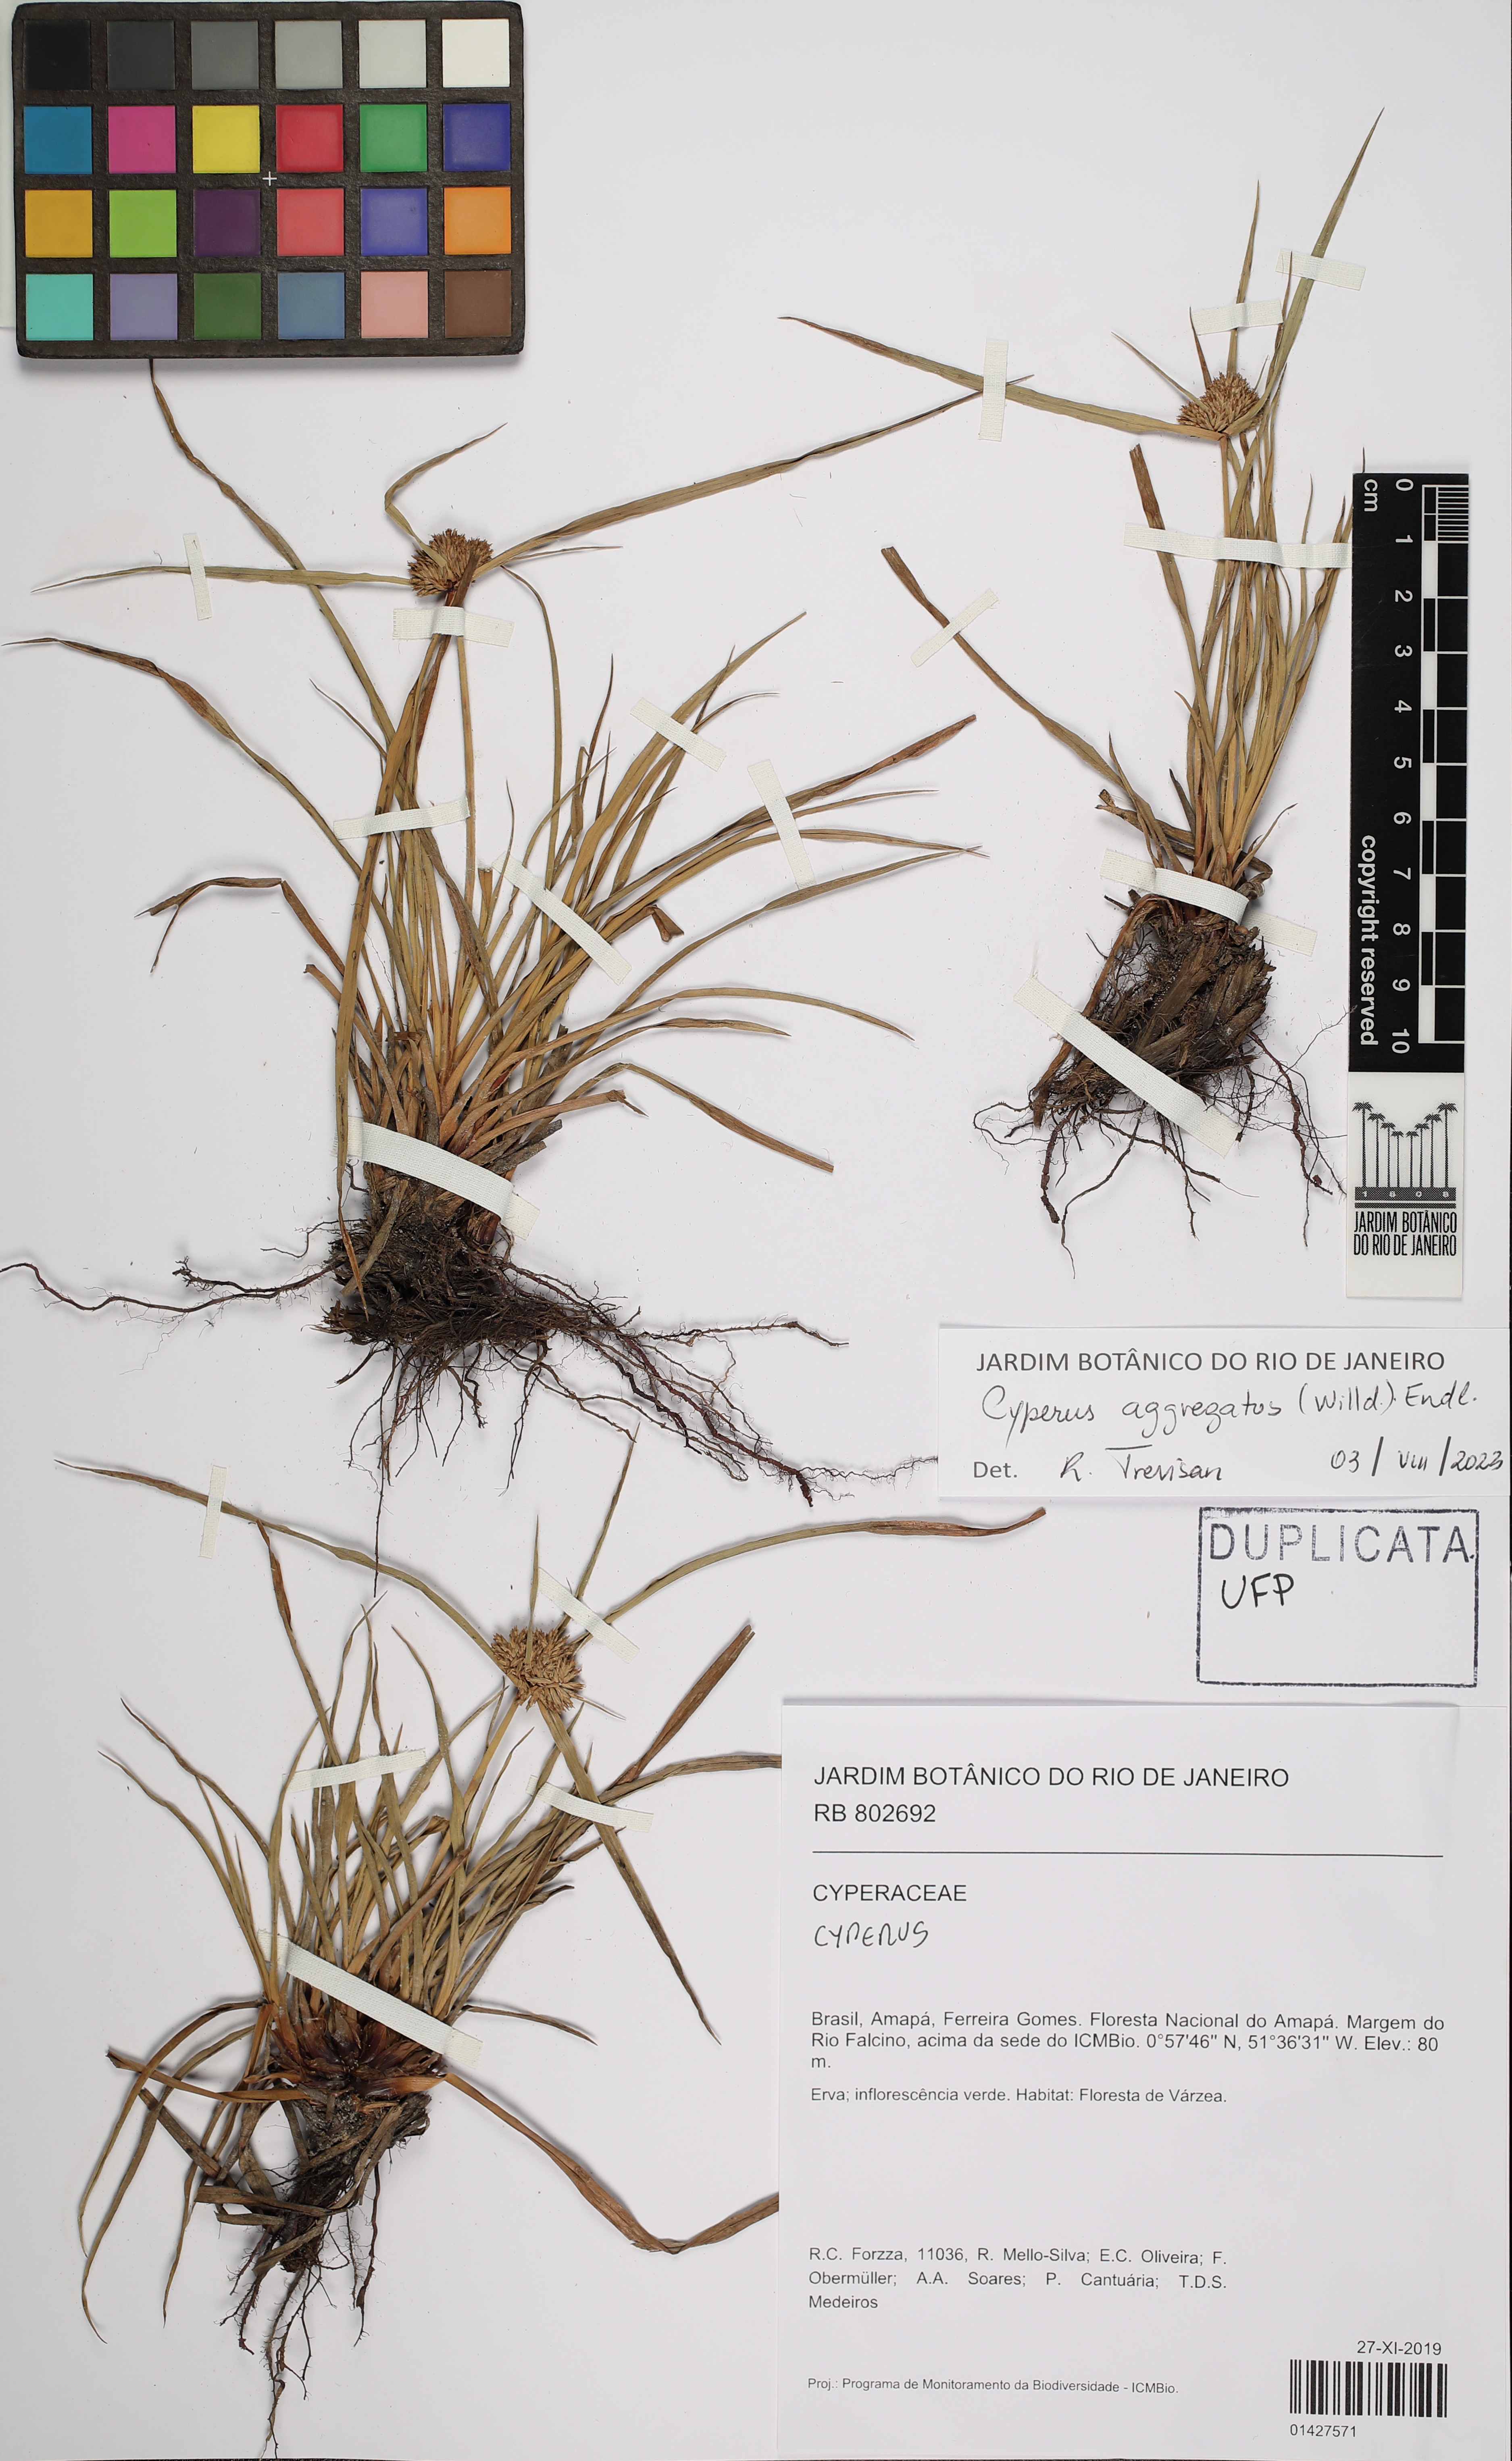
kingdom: Plantae
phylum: Tracheophyta
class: Liliopsida
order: Poales
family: Cyperaceae
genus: Cyperus
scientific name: Cyperus aggregatus
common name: Inflatedscale flatsedge
